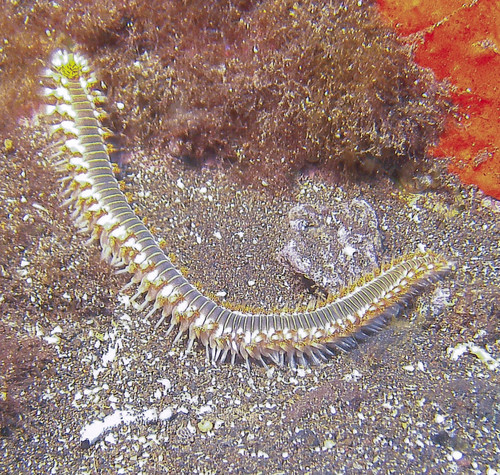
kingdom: Animalia
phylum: Annelida
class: Polychaeta
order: Amphinomida
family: Amphinomidae
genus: Hermodice
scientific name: Hermodice carunculata
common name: Bearded fireworm
